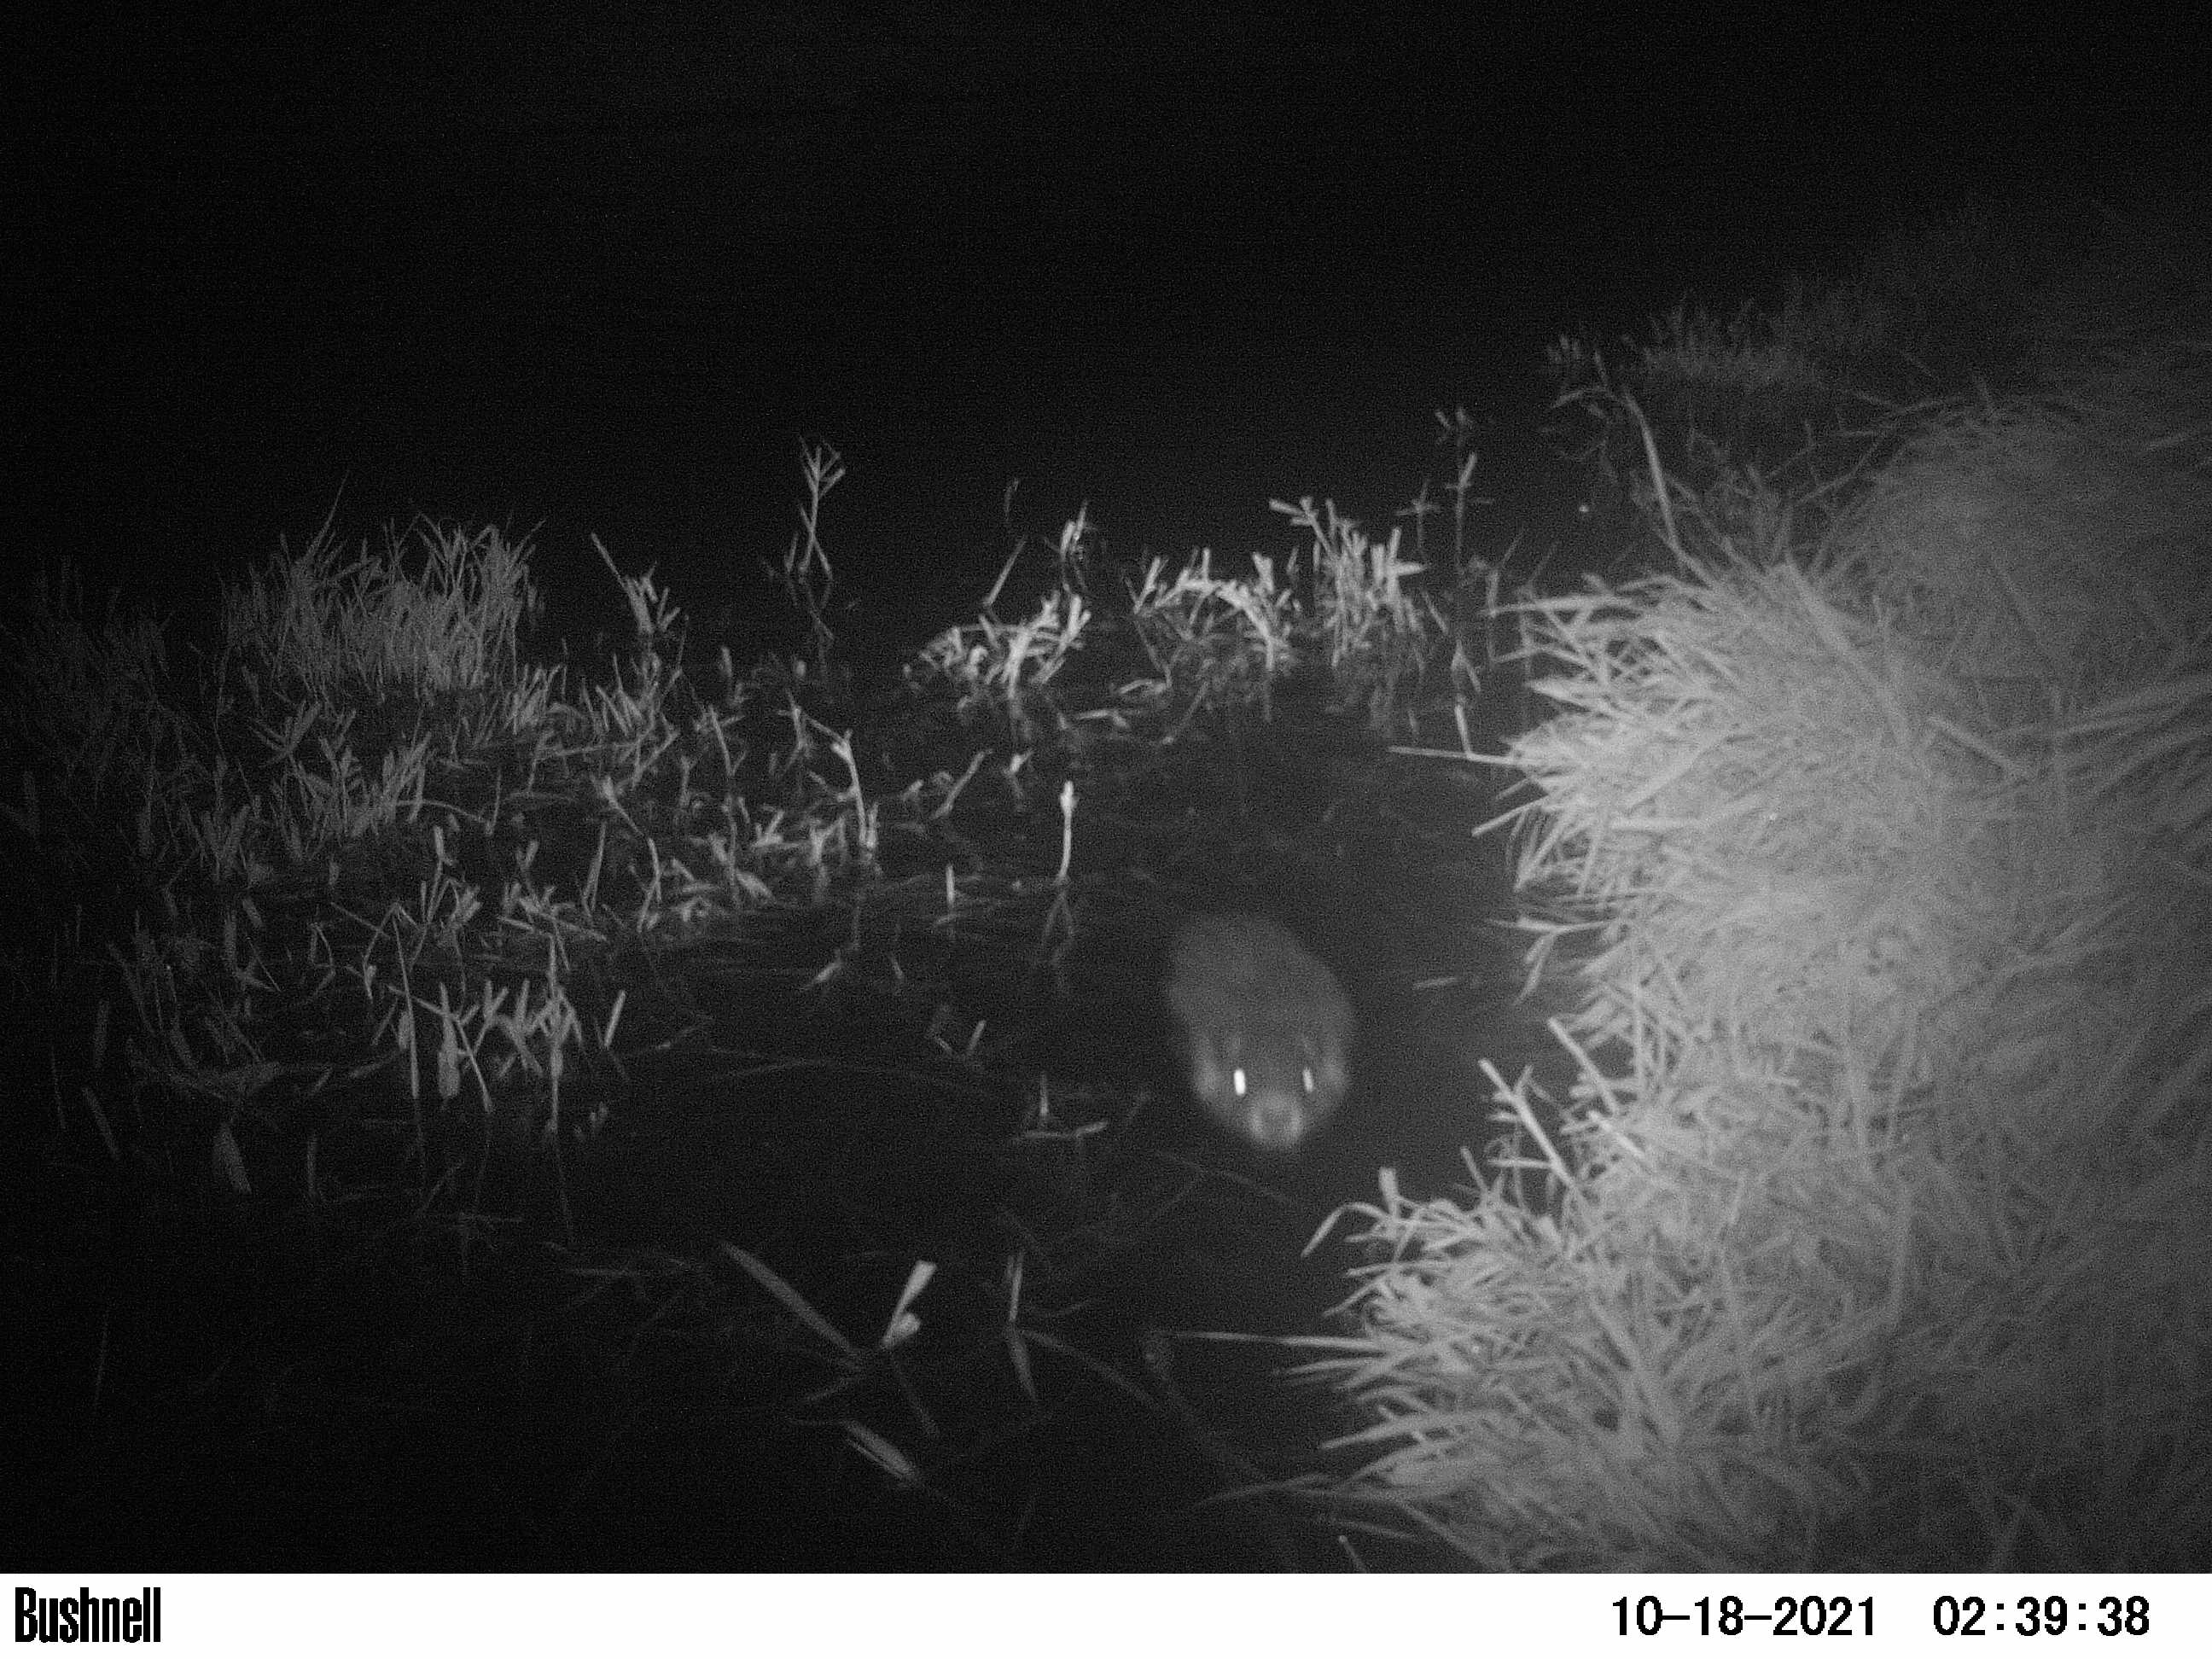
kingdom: Animalia
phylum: Chordata
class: Mammalia
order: Rodentia
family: Cricetidae
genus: Ondatra
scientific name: Ondatra zibethicus
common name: Muskrat
